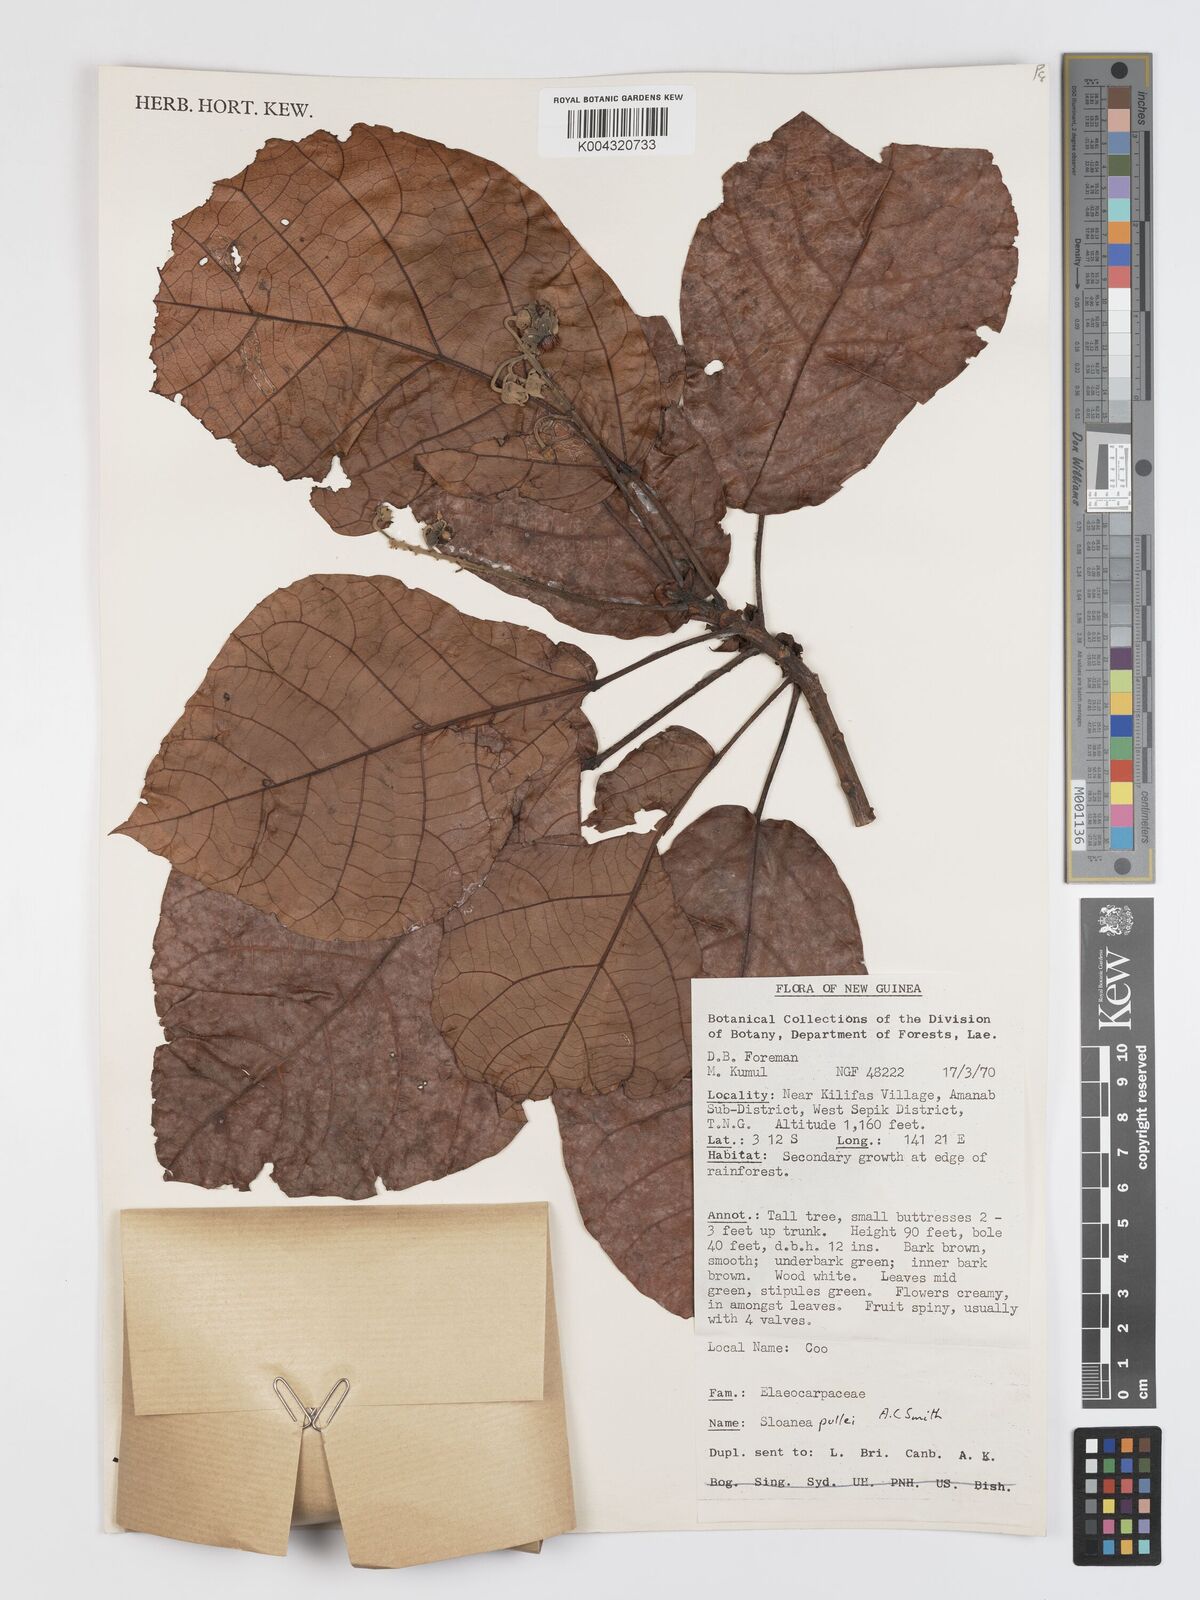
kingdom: Plantae
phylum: Tracheophyta
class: Magnoliopsida
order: Oxalidales
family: Elaeocarpaceae
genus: Sloanea
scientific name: Sloanea pullei
